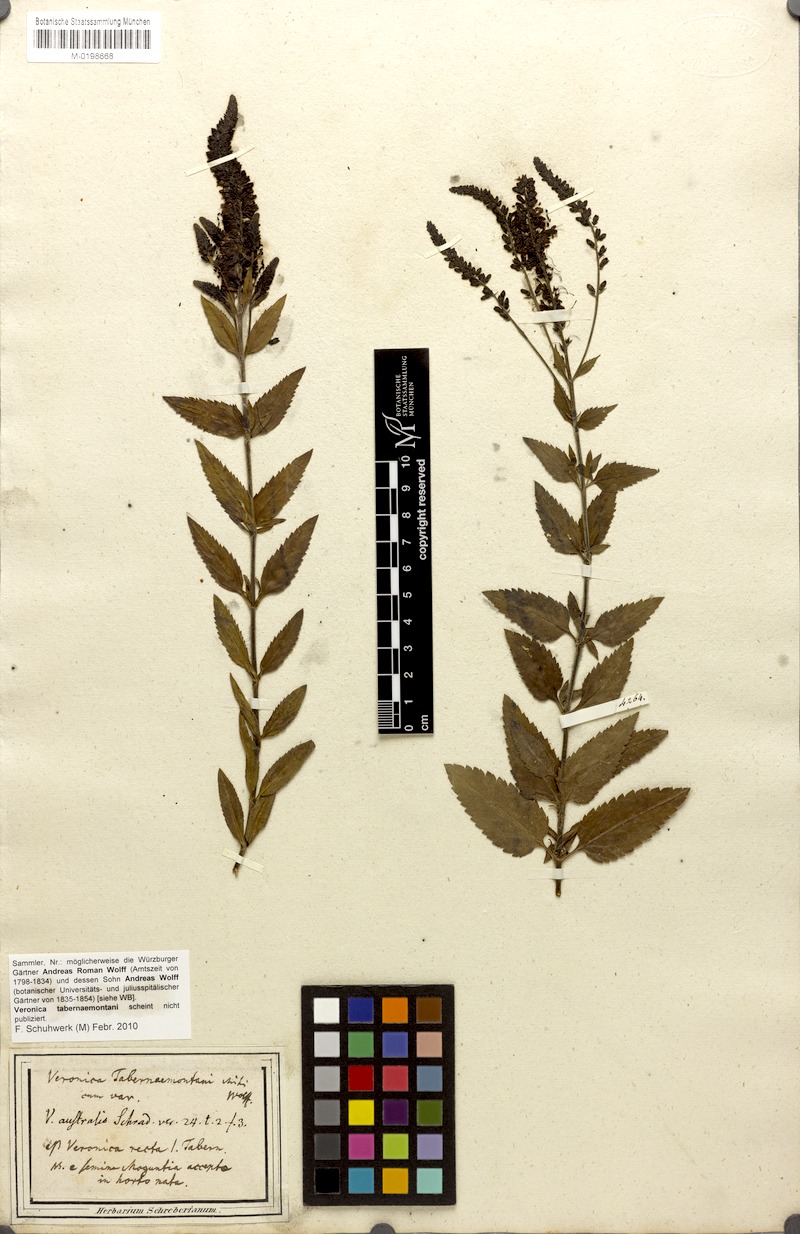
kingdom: Plantae
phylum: Tracheophyta
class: Magnoliopsida
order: Lamiales
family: Plantaginaceae
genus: Veronica
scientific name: Veronica spicata
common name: Spiked speedwell
